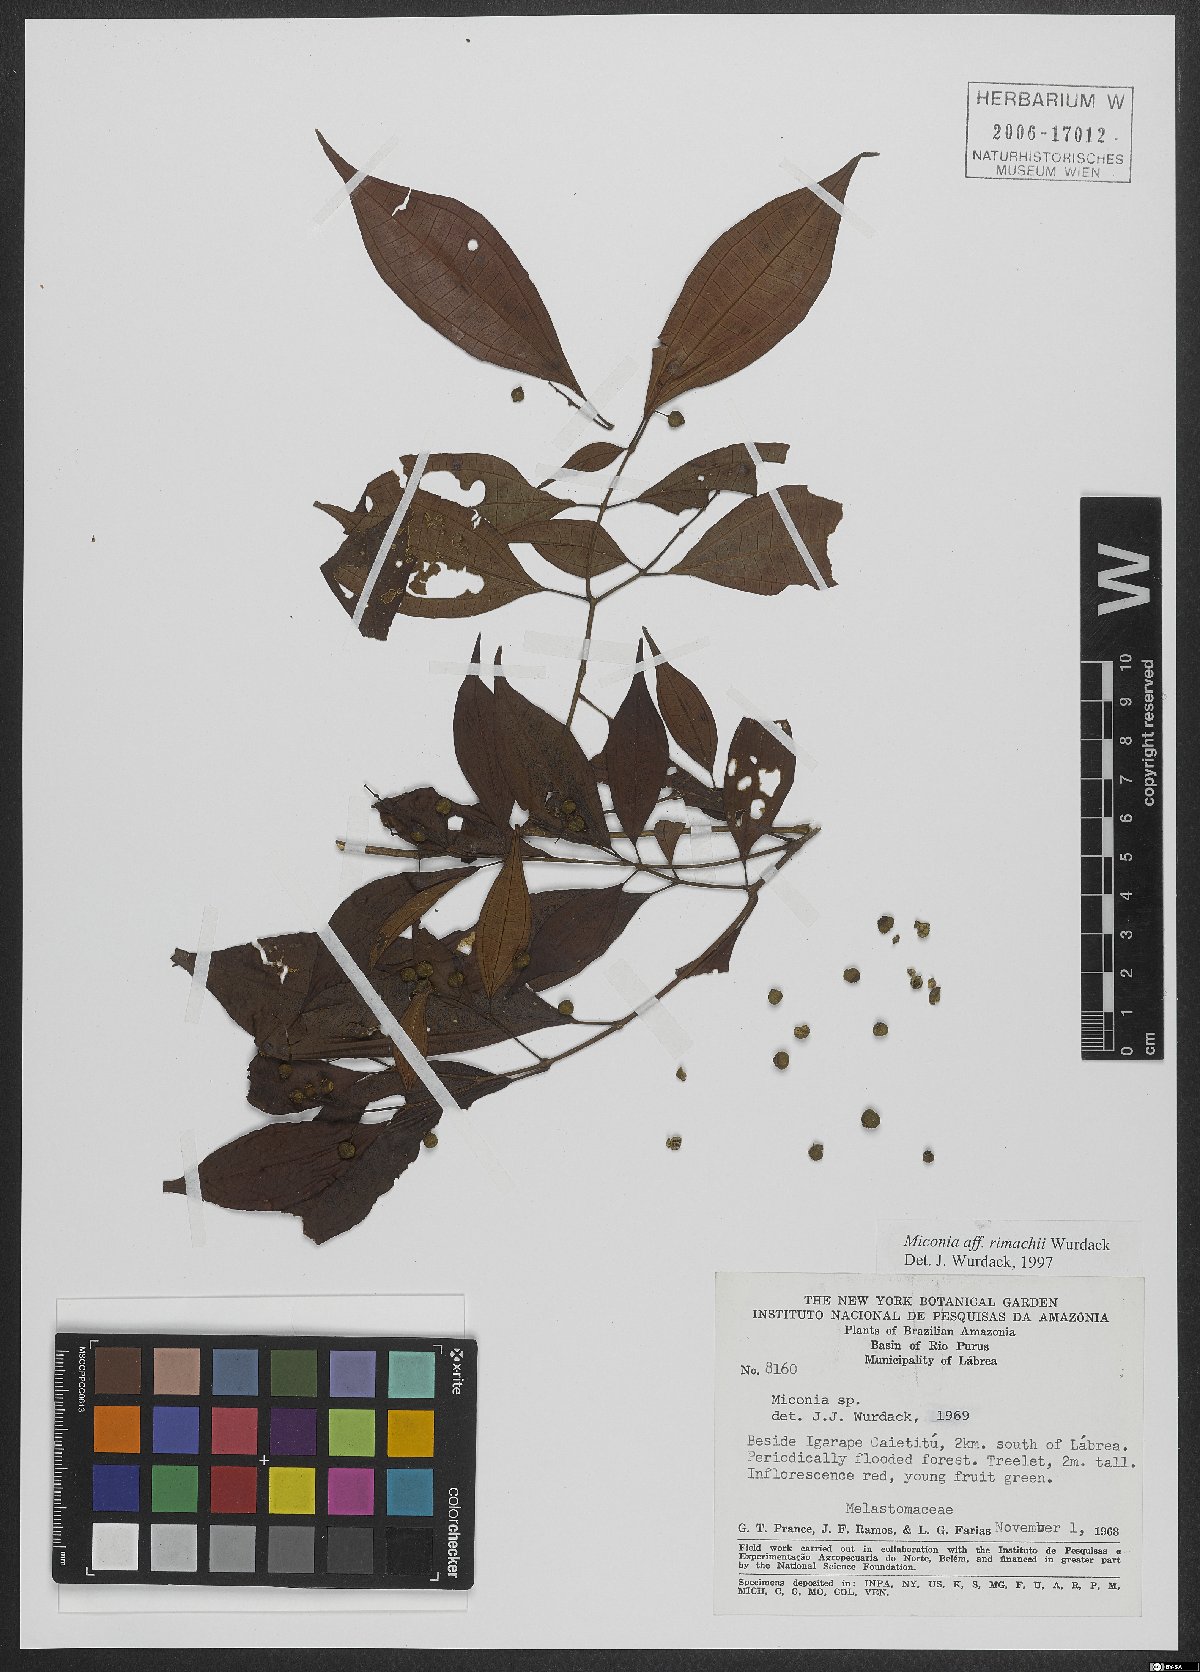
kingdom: Plantae
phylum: Tracheophyta
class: Magnoliopsida
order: Myrtales
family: Melastomataceae
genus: Miconia
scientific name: Miconia rimachii
